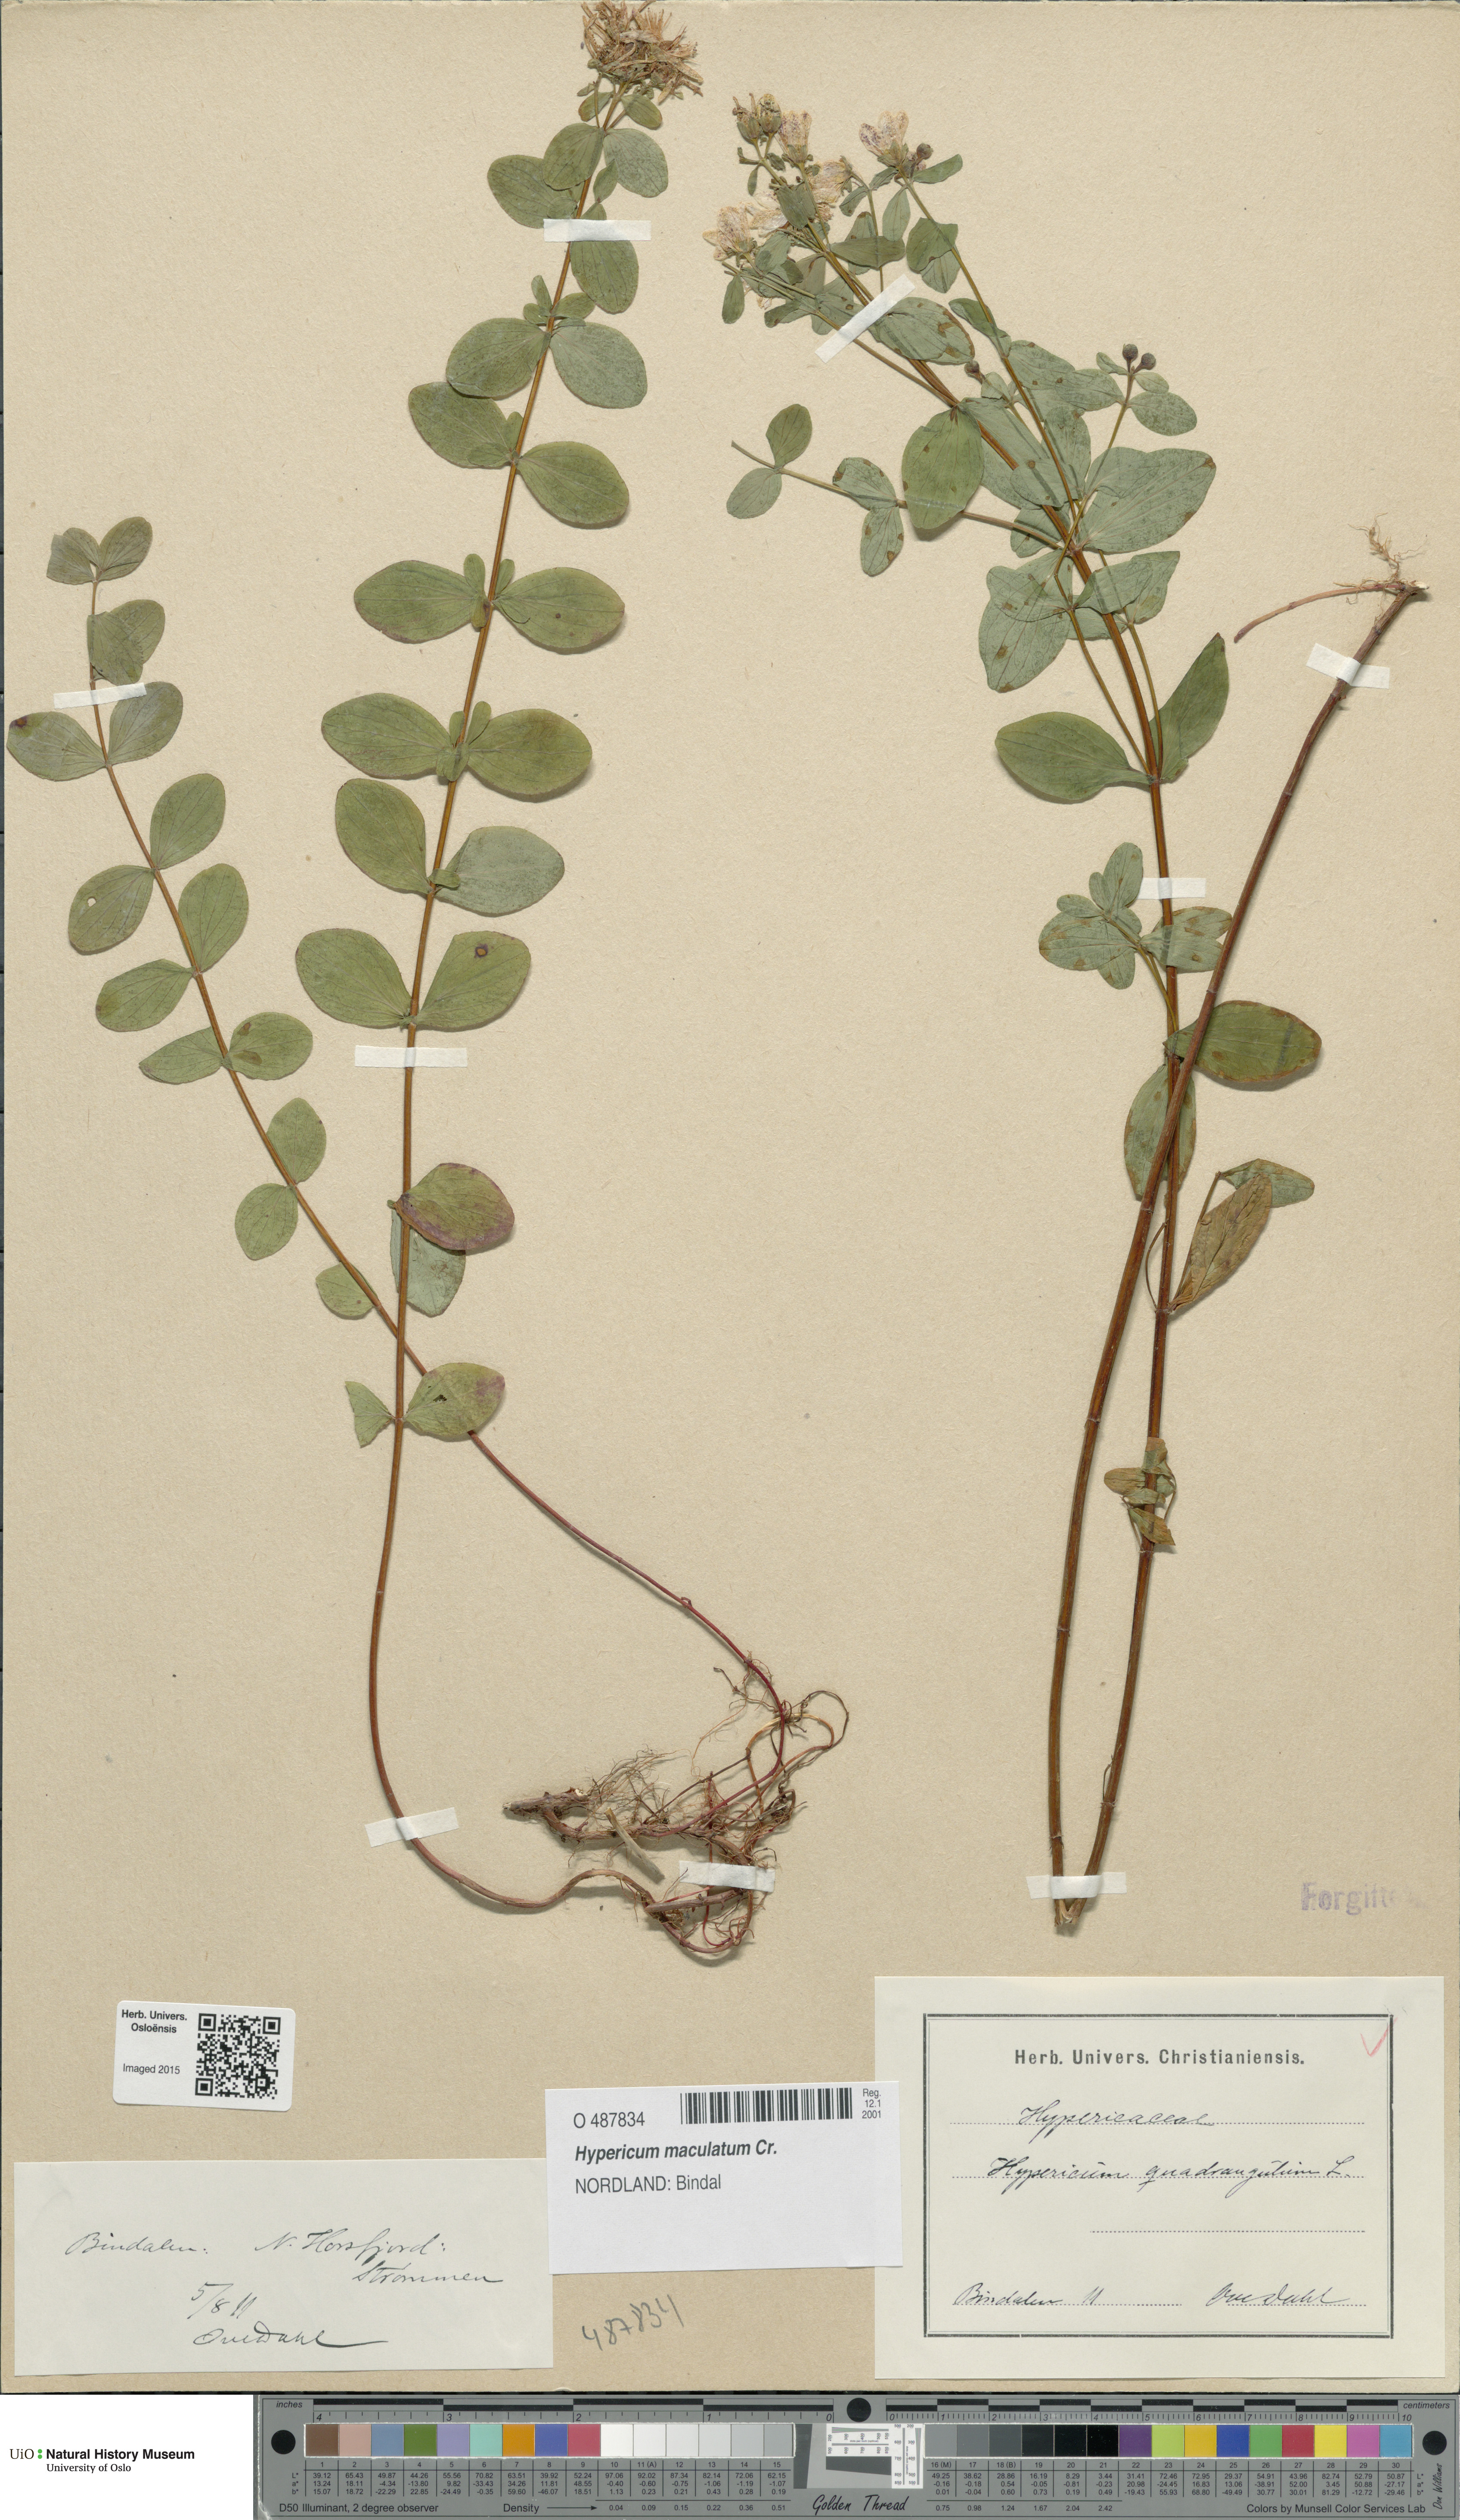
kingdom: Plantae
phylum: Tracheophyta
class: Magnoliopsida
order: Malpighiales
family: Hypericaceae
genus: Hypericum
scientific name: Hypericum maculatum
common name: Imperforate st. john's-wort
